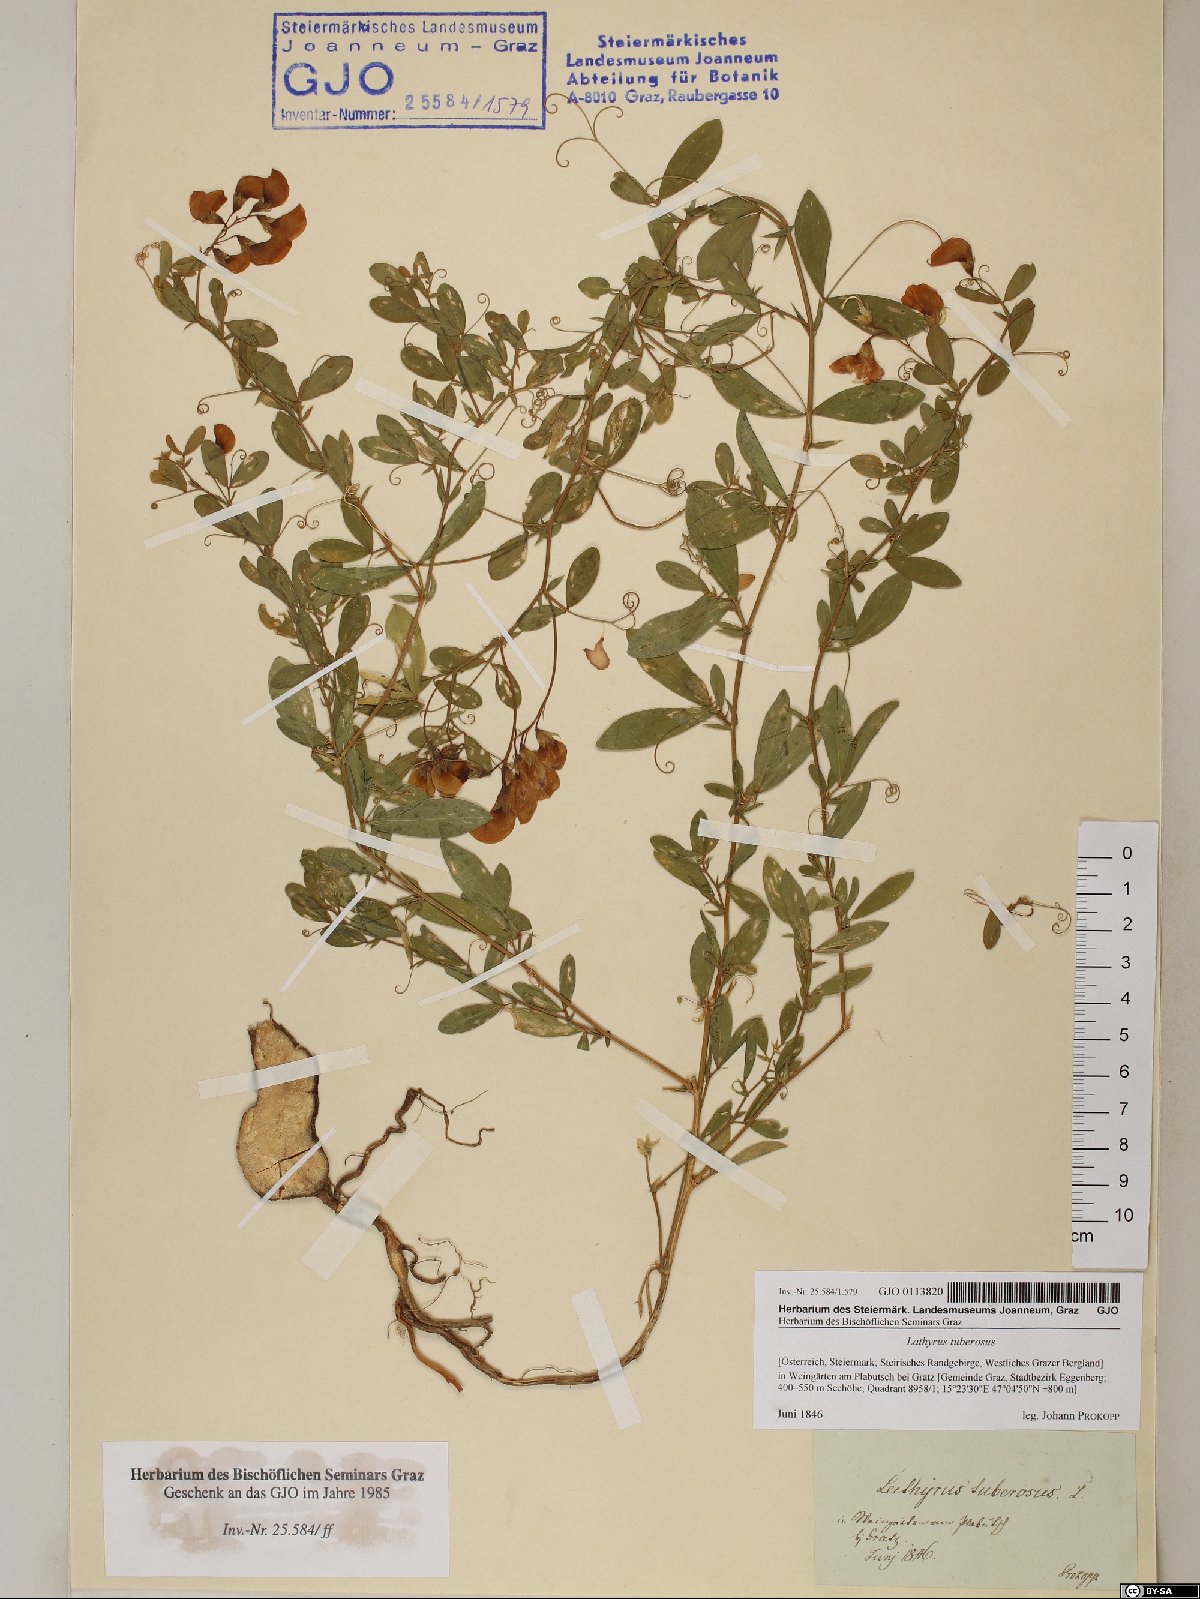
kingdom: Plantae
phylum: Tracheophyta
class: Magnoliopsida
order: Fabales
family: Fabaceae
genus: Lathyrus
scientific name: Lathyrus tuberosus
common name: Tuberous pea
